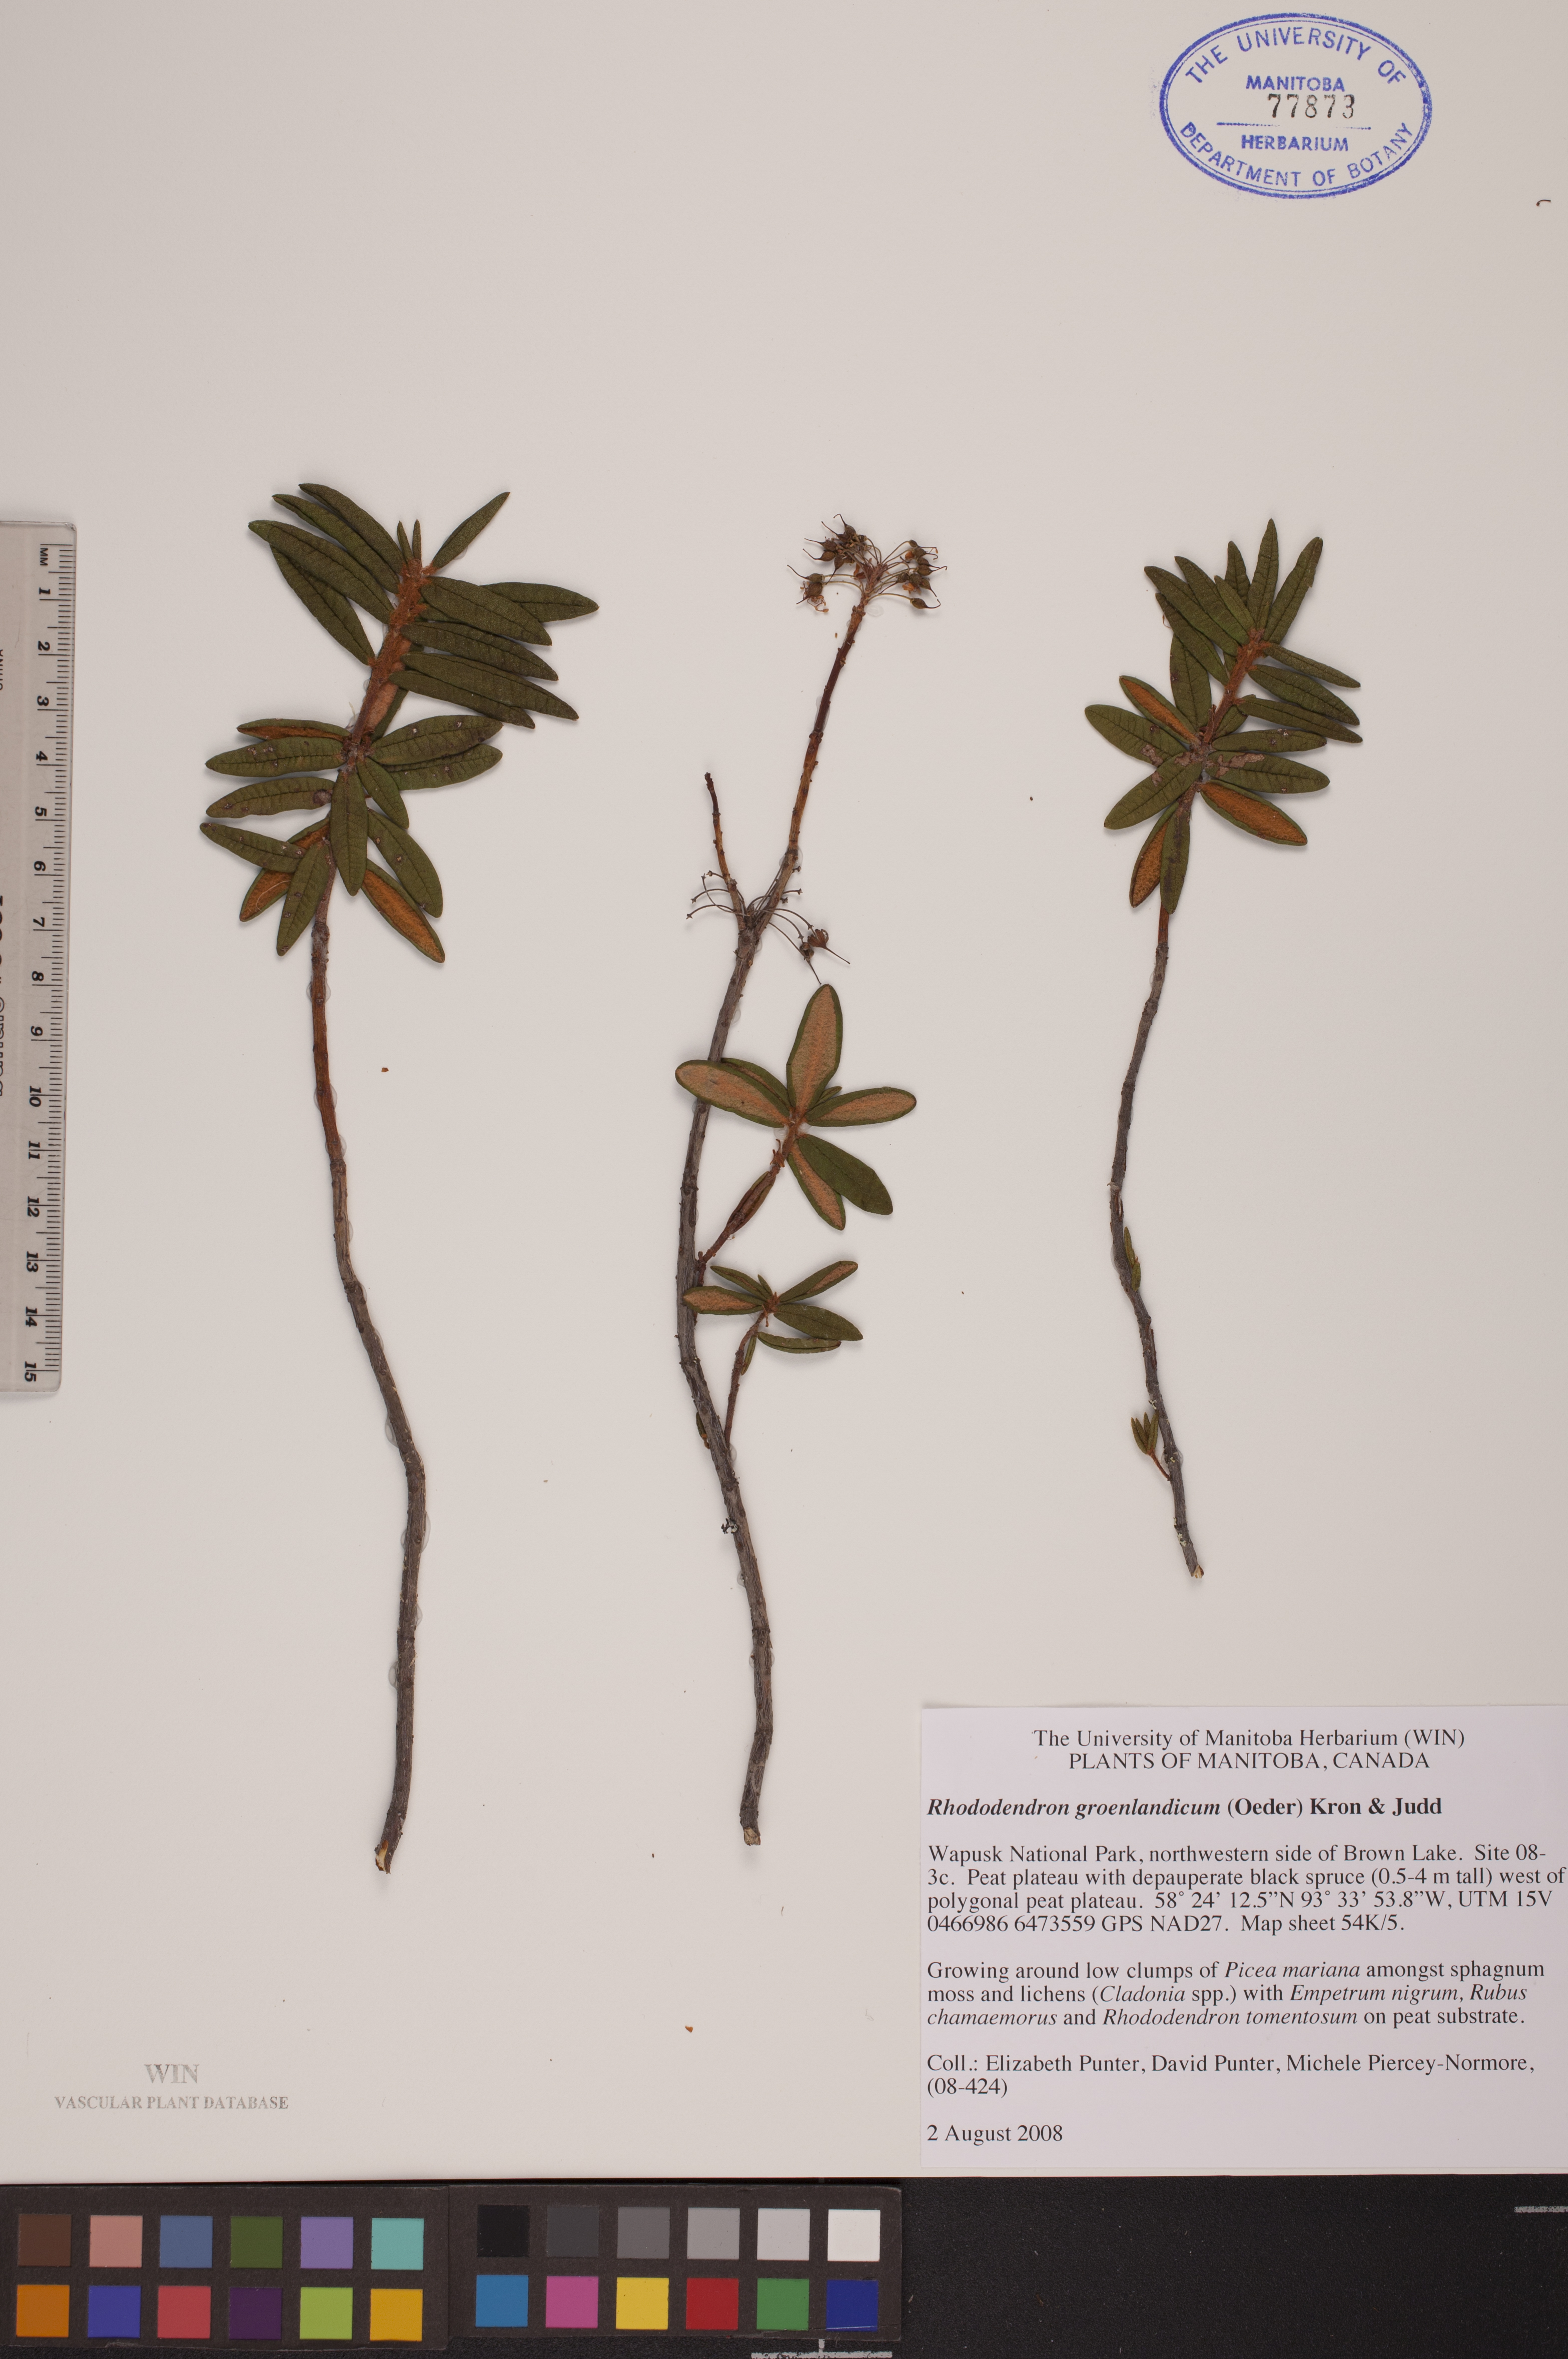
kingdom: Plantae
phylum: Tracheophyta
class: Magnoliopsida
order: Ericales
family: Ericaceae
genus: Rhododendron
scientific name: Rhododendron groenlandicum
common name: Bog labrador tea
